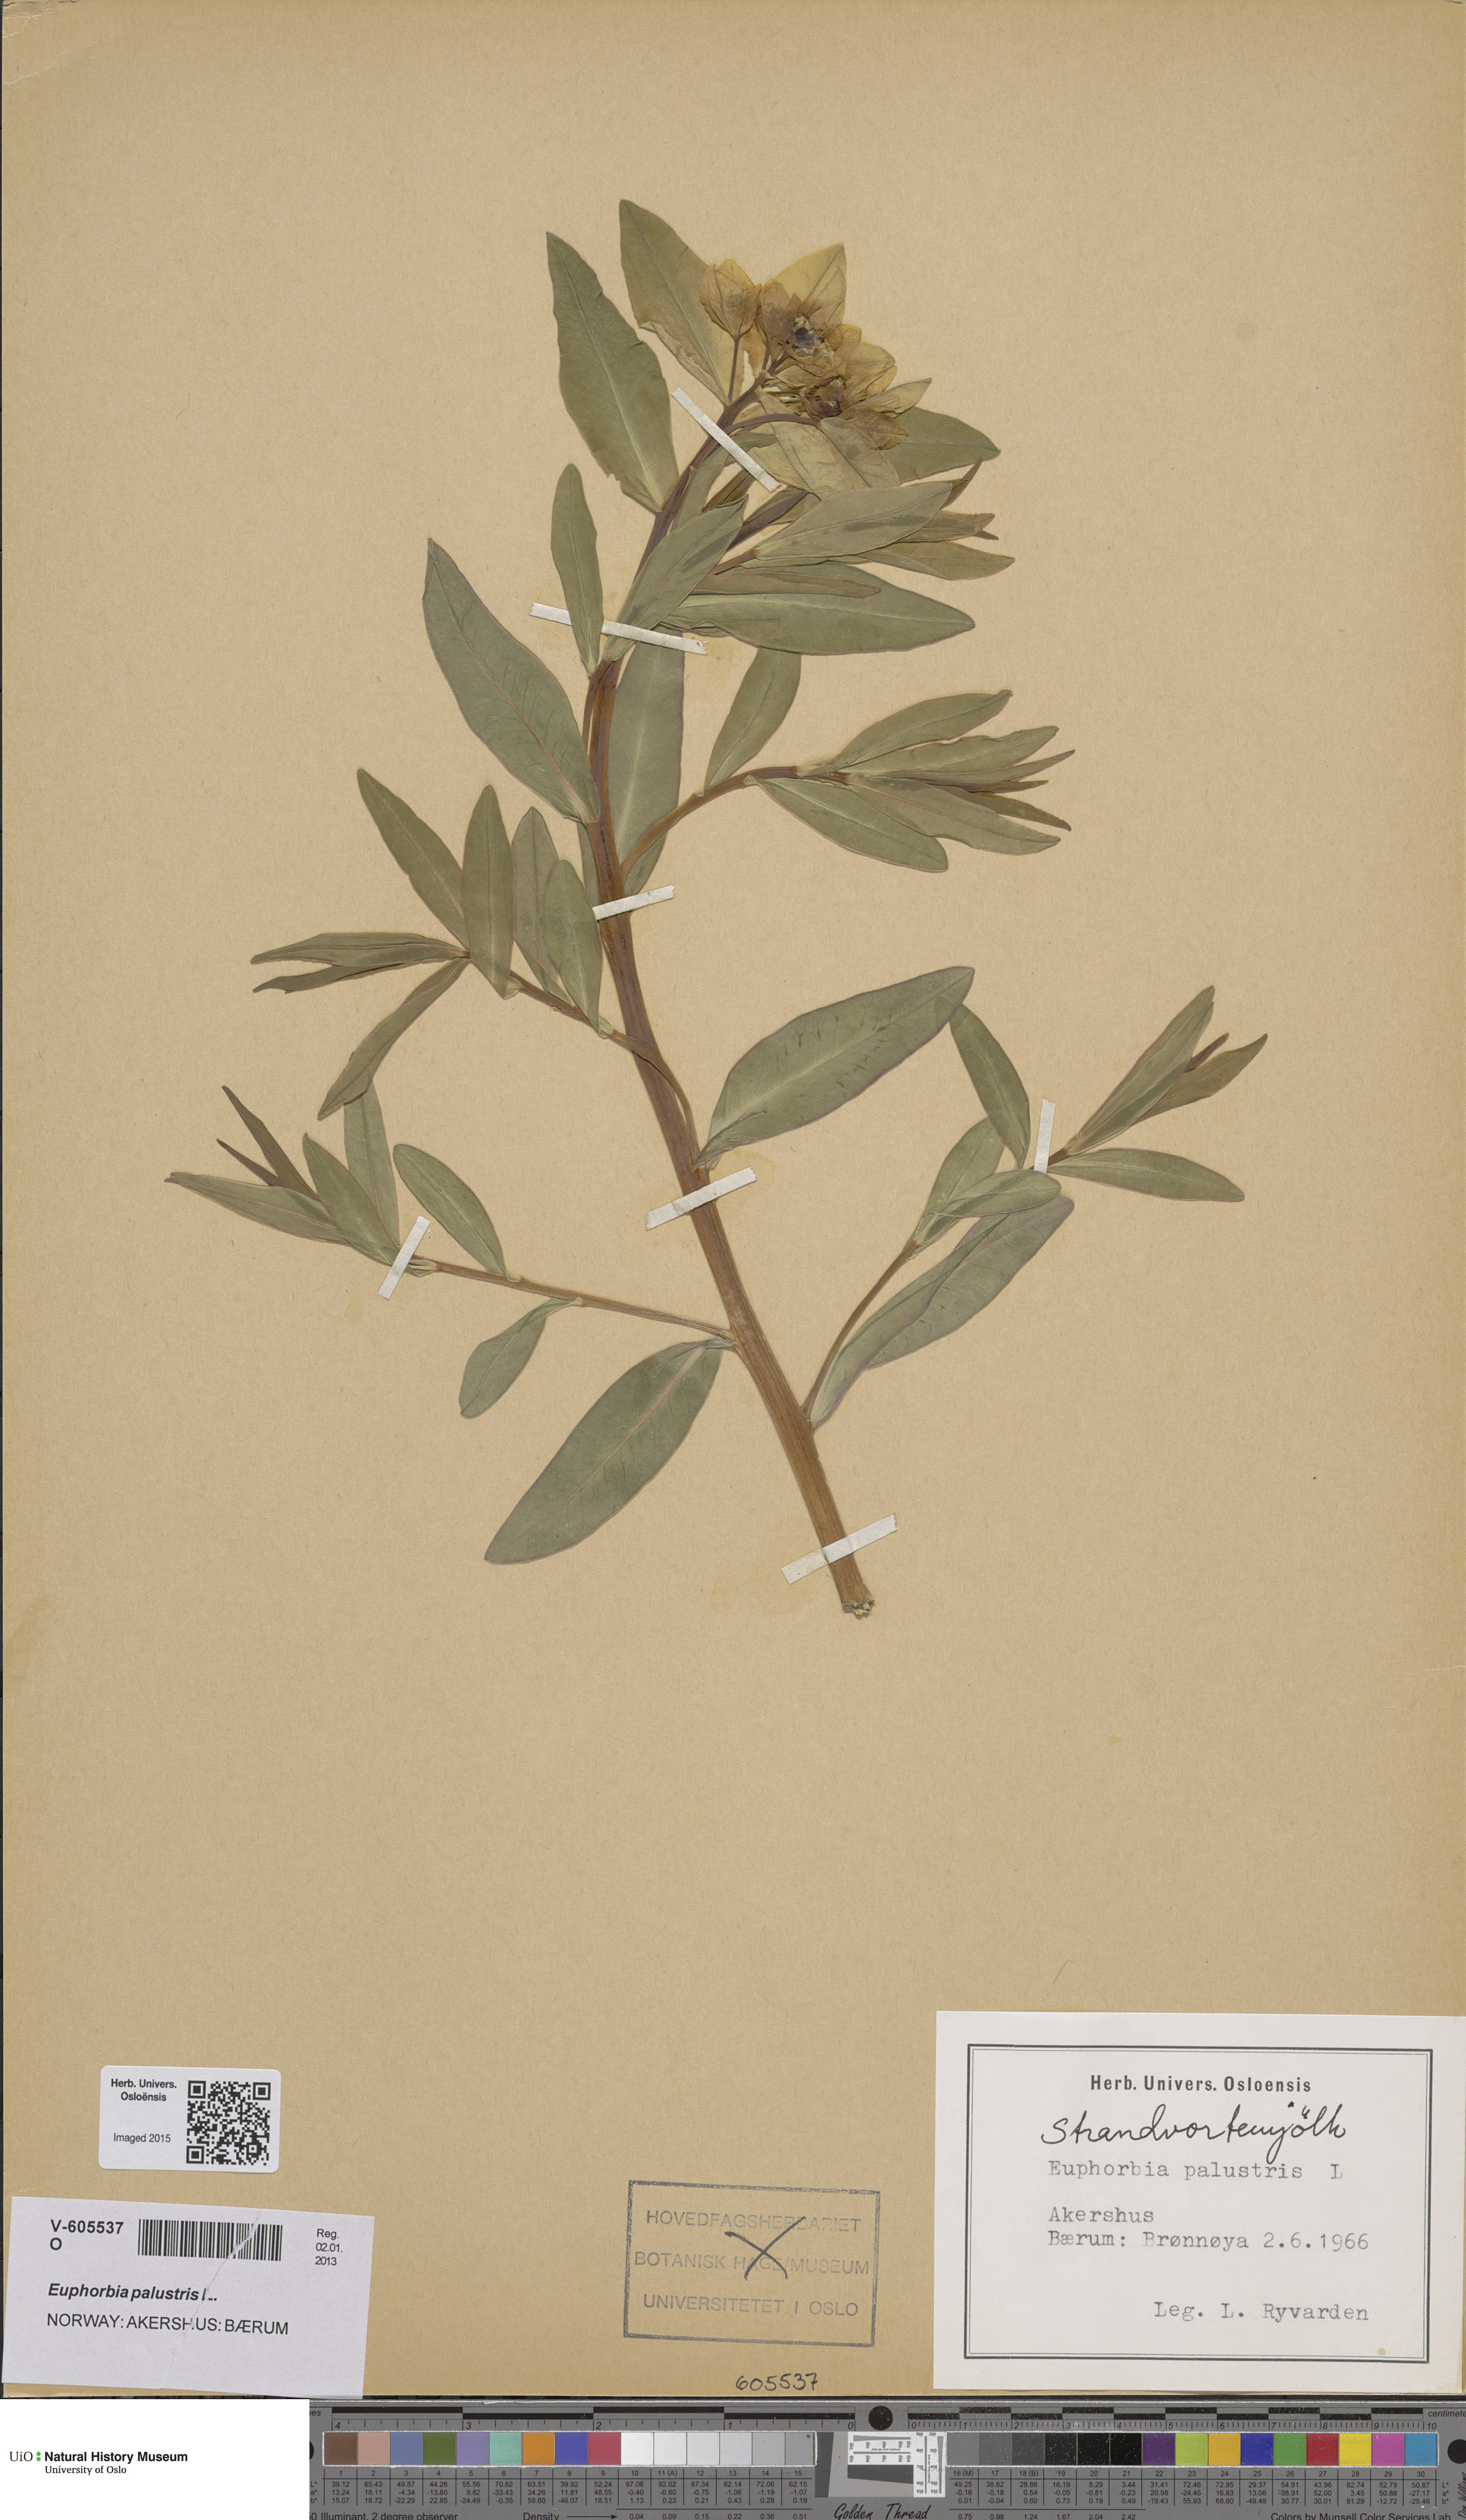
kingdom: Plantae
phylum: Tracheophyta
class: Magnoliopsida
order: Malpighiales
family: Euphorbiaceae
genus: Euphorbia
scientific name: Euphorbia palustris
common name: Marsh spurge
